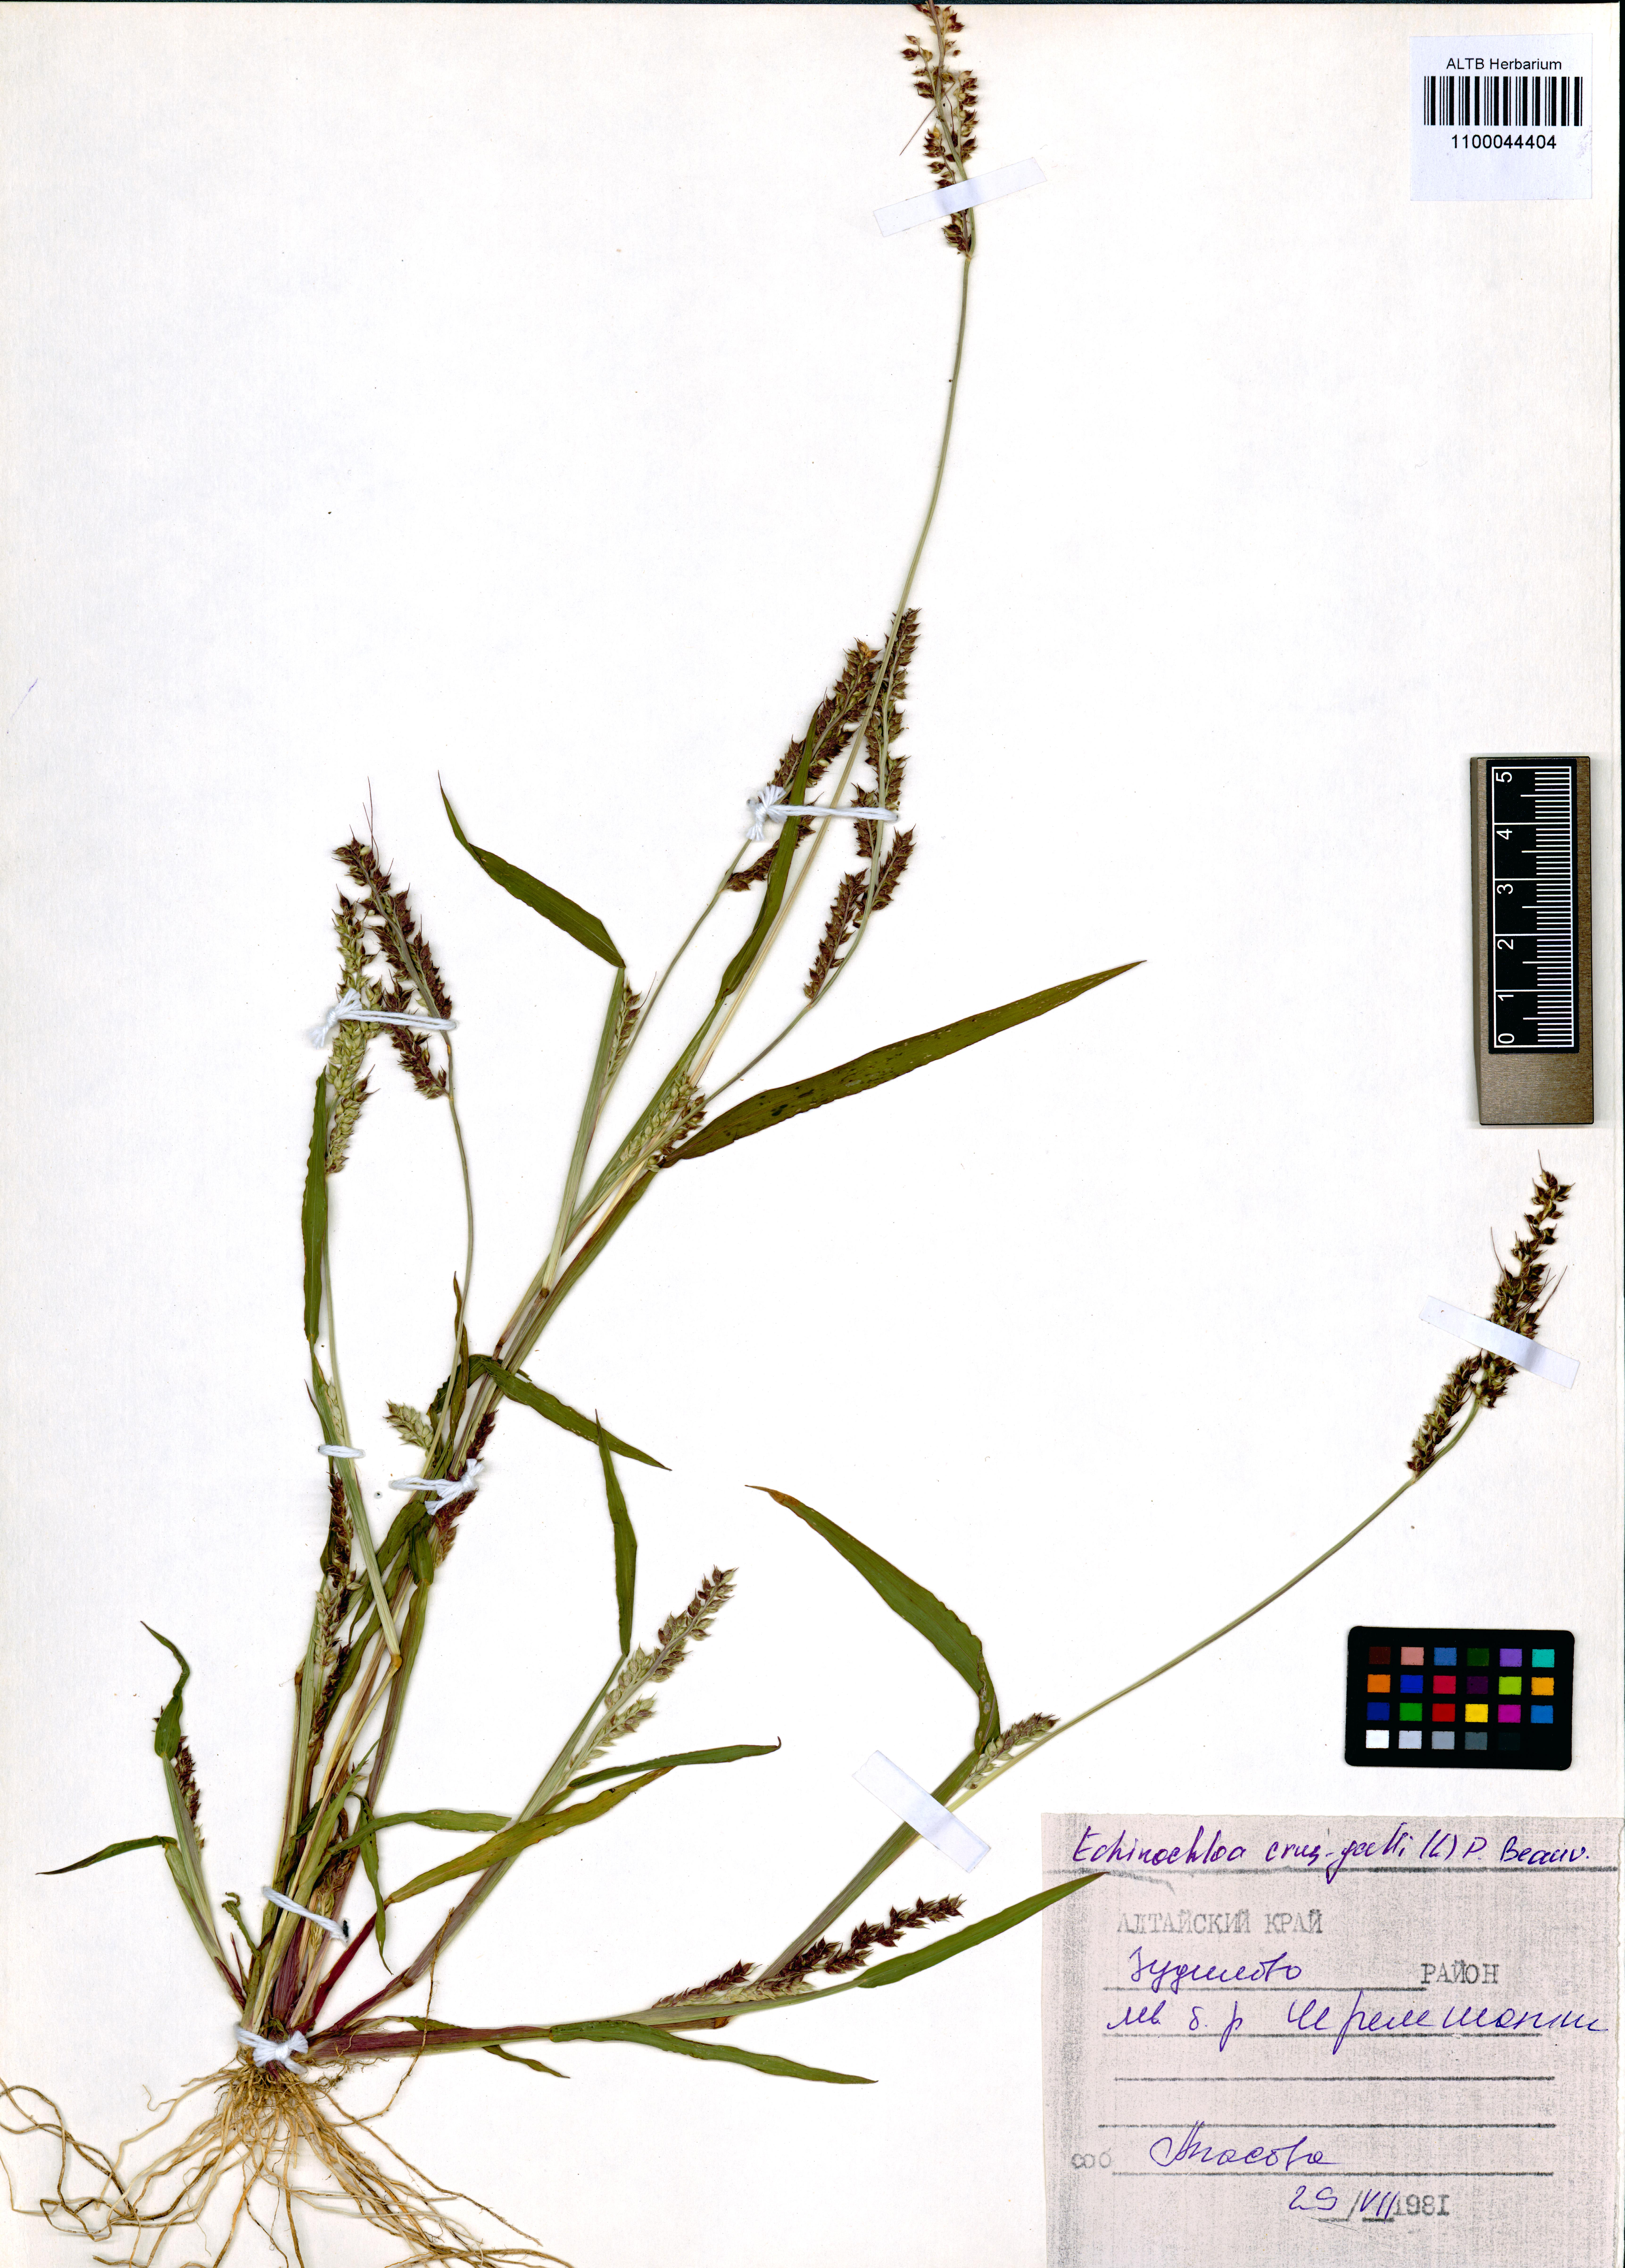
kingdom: Plantae
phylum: Tracheophyta
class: Liliopsida
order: Poales
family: Poaceae
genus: Echinochloa
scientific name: Echinochloa crus-galli
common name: Cockspur
